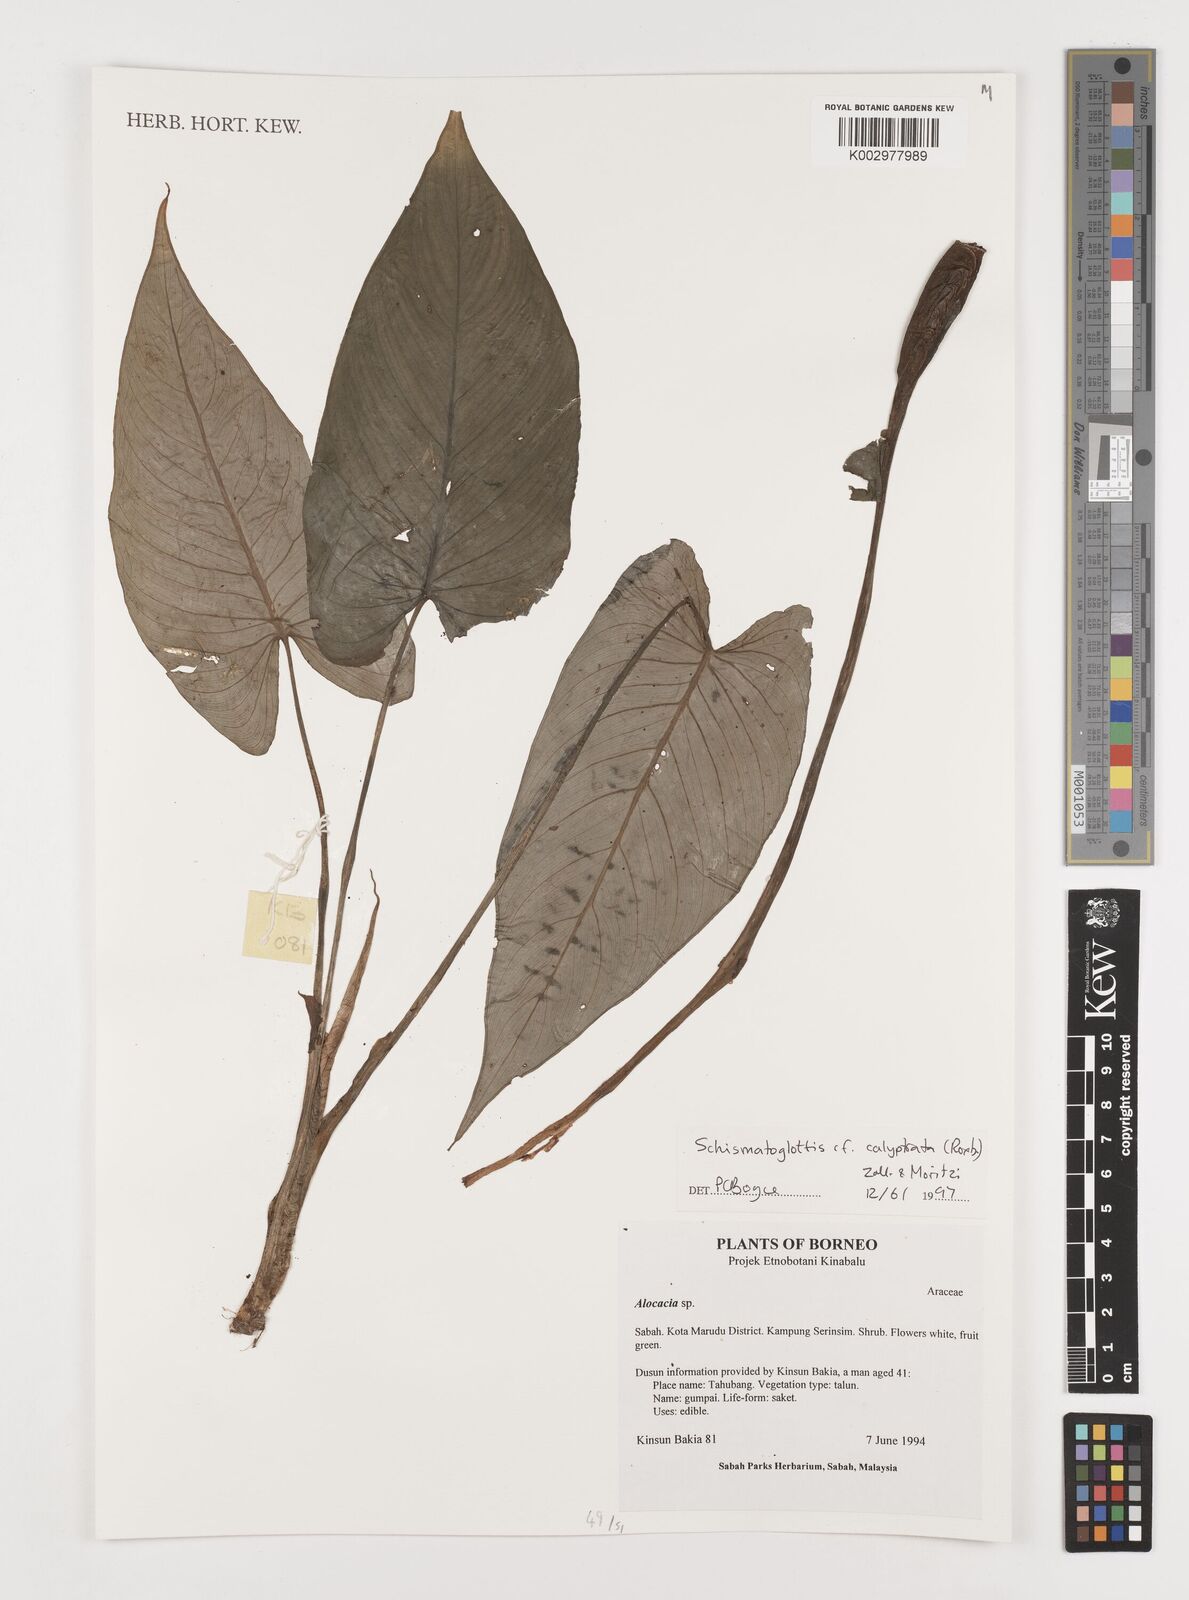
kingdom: Plantae
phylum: Tracheophyta
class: Liliopsida
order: Alismatales
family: Araceae
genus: Schismatoglottis
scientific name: Schismatoglottis calyptrata
